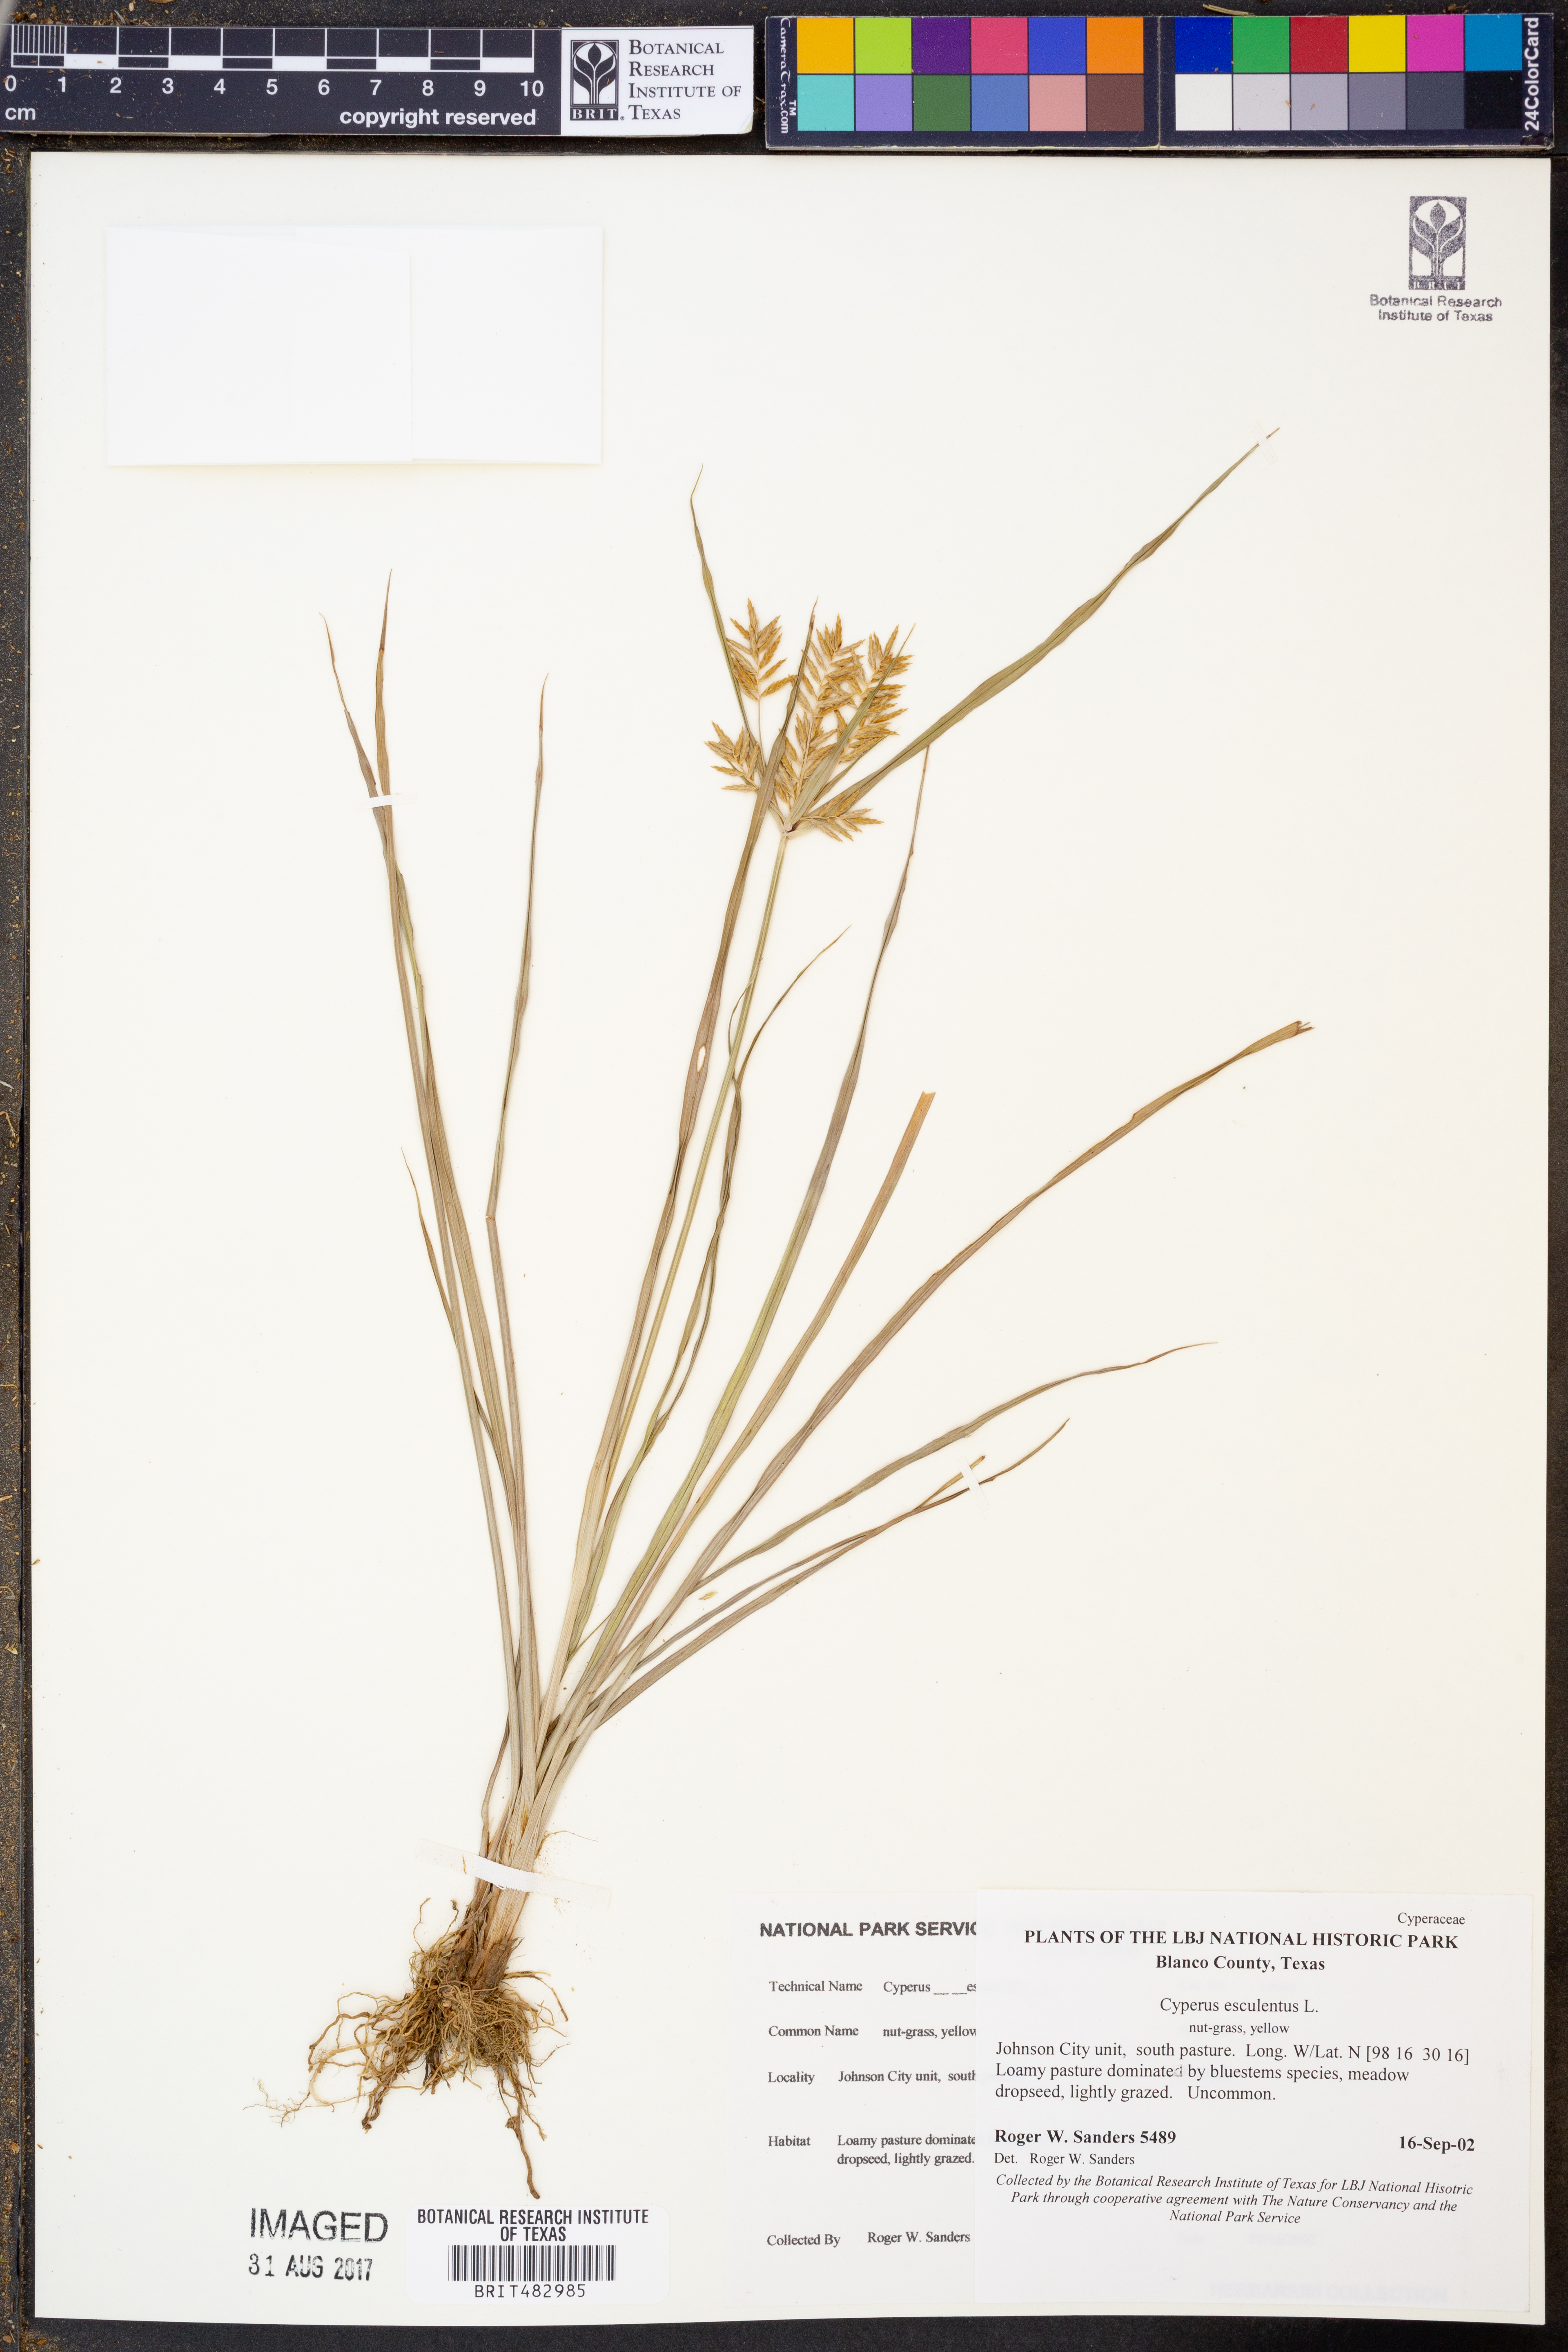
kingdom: Plantae
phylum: Tracheophyta
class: Liliopsida
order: Poales
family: Cyperaceae
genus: Cyperus
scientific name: Cyperus esculentus
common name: Yellow nutsedge
